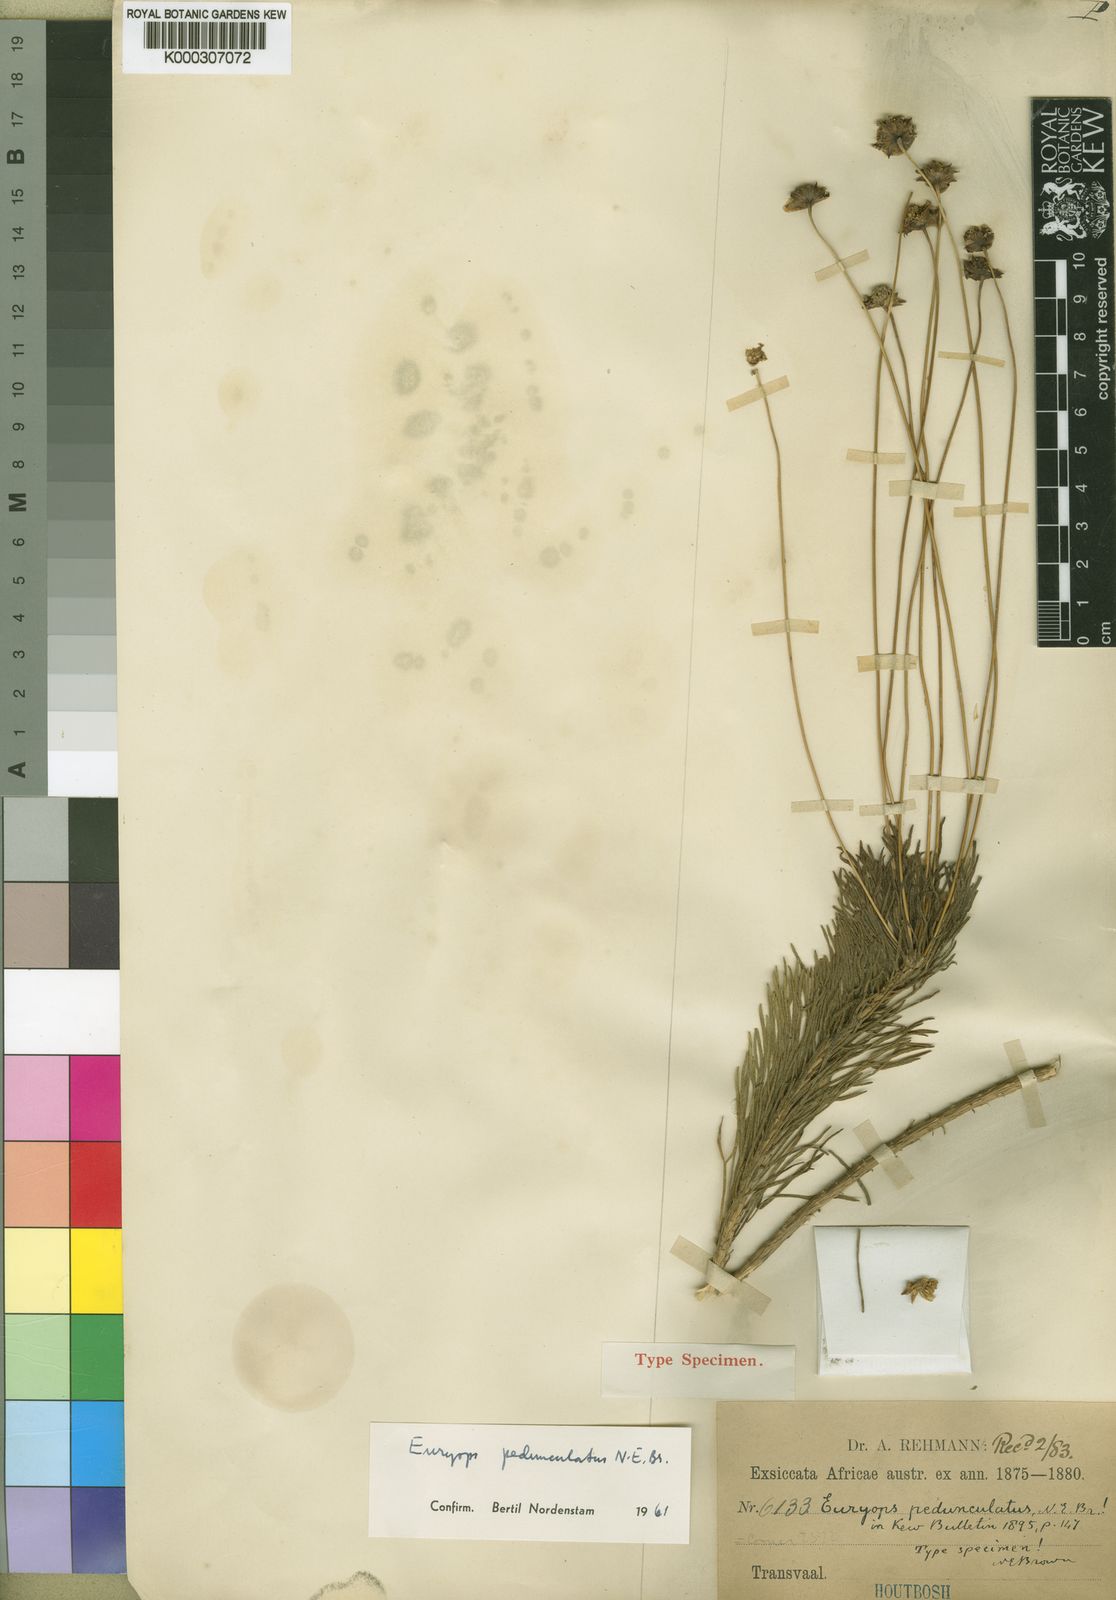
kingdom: Plantae
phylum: Tracheophyta
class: Magnoliopsida
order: Asterales
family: Asteraceae
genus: Euryops
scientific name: Euryops pedunculatus
